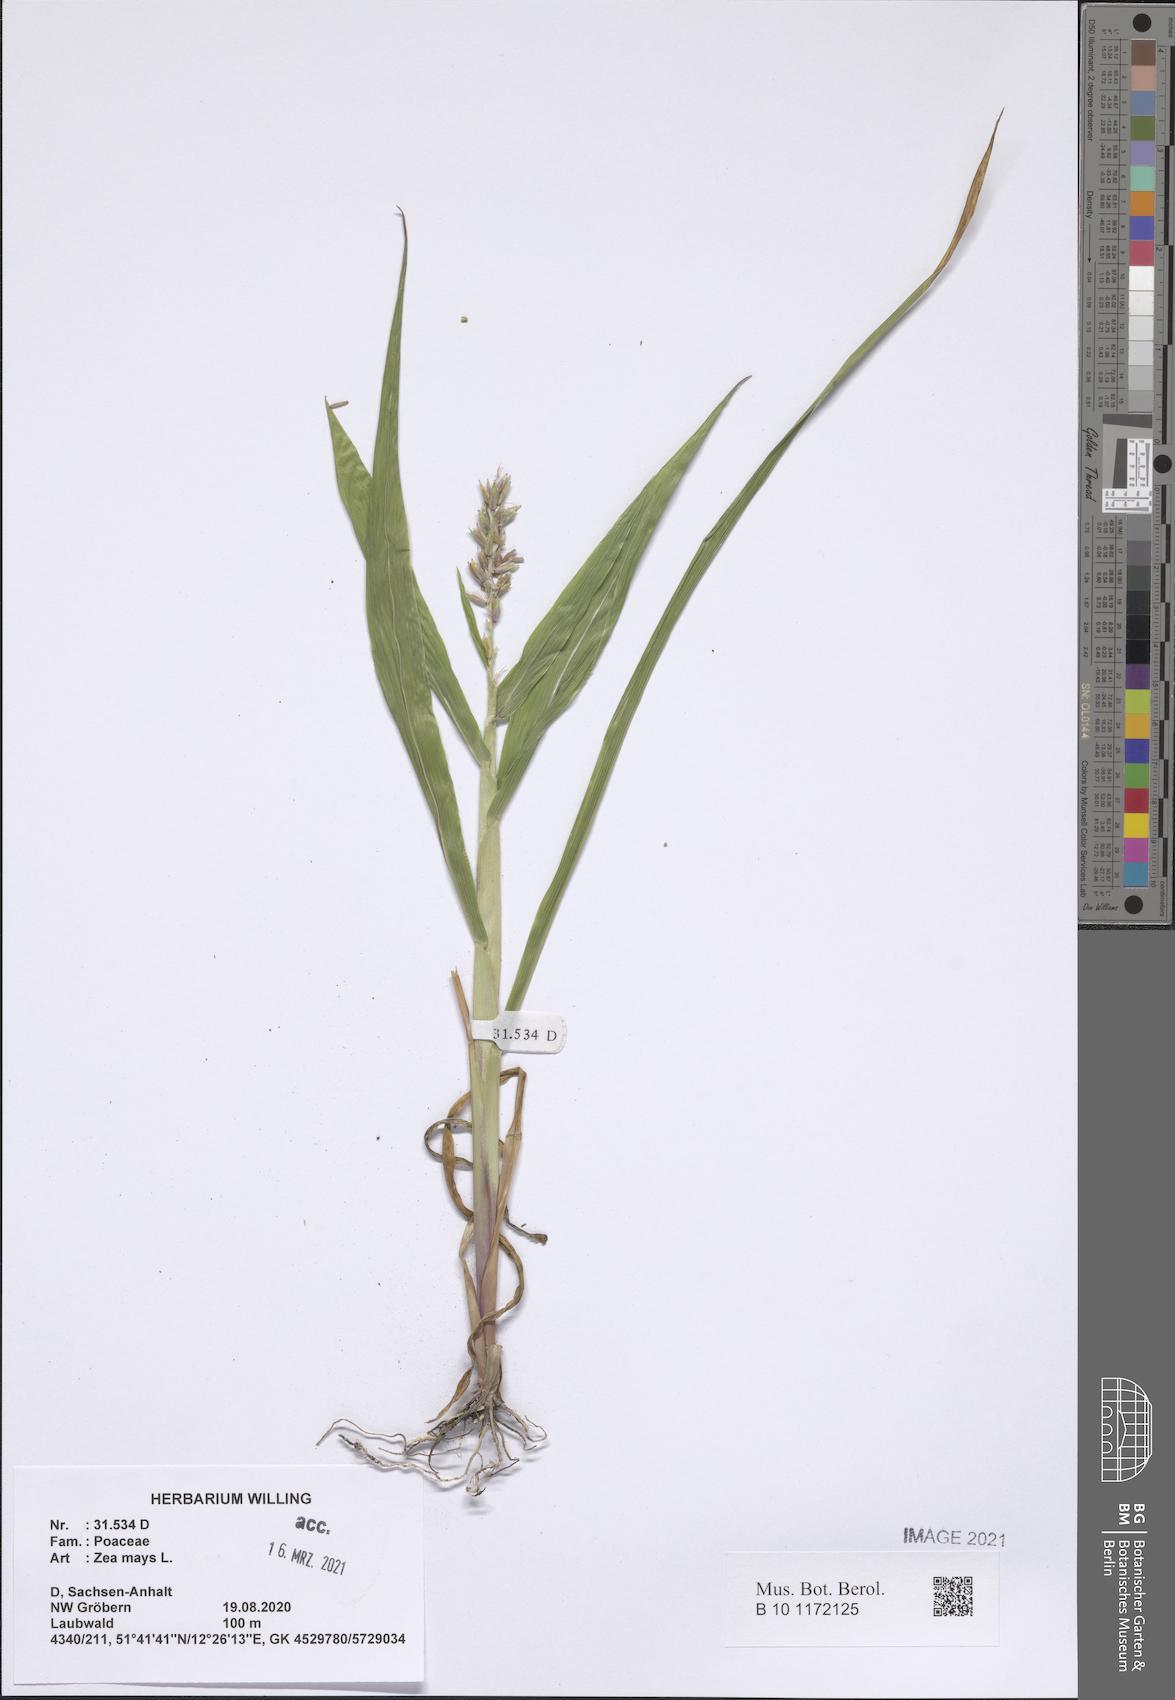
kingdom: Plantae
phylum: Tracheophyta
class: Liliopsida
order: Poales
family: Poaceae
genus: Zea
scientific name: Zea mays
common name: Maize
